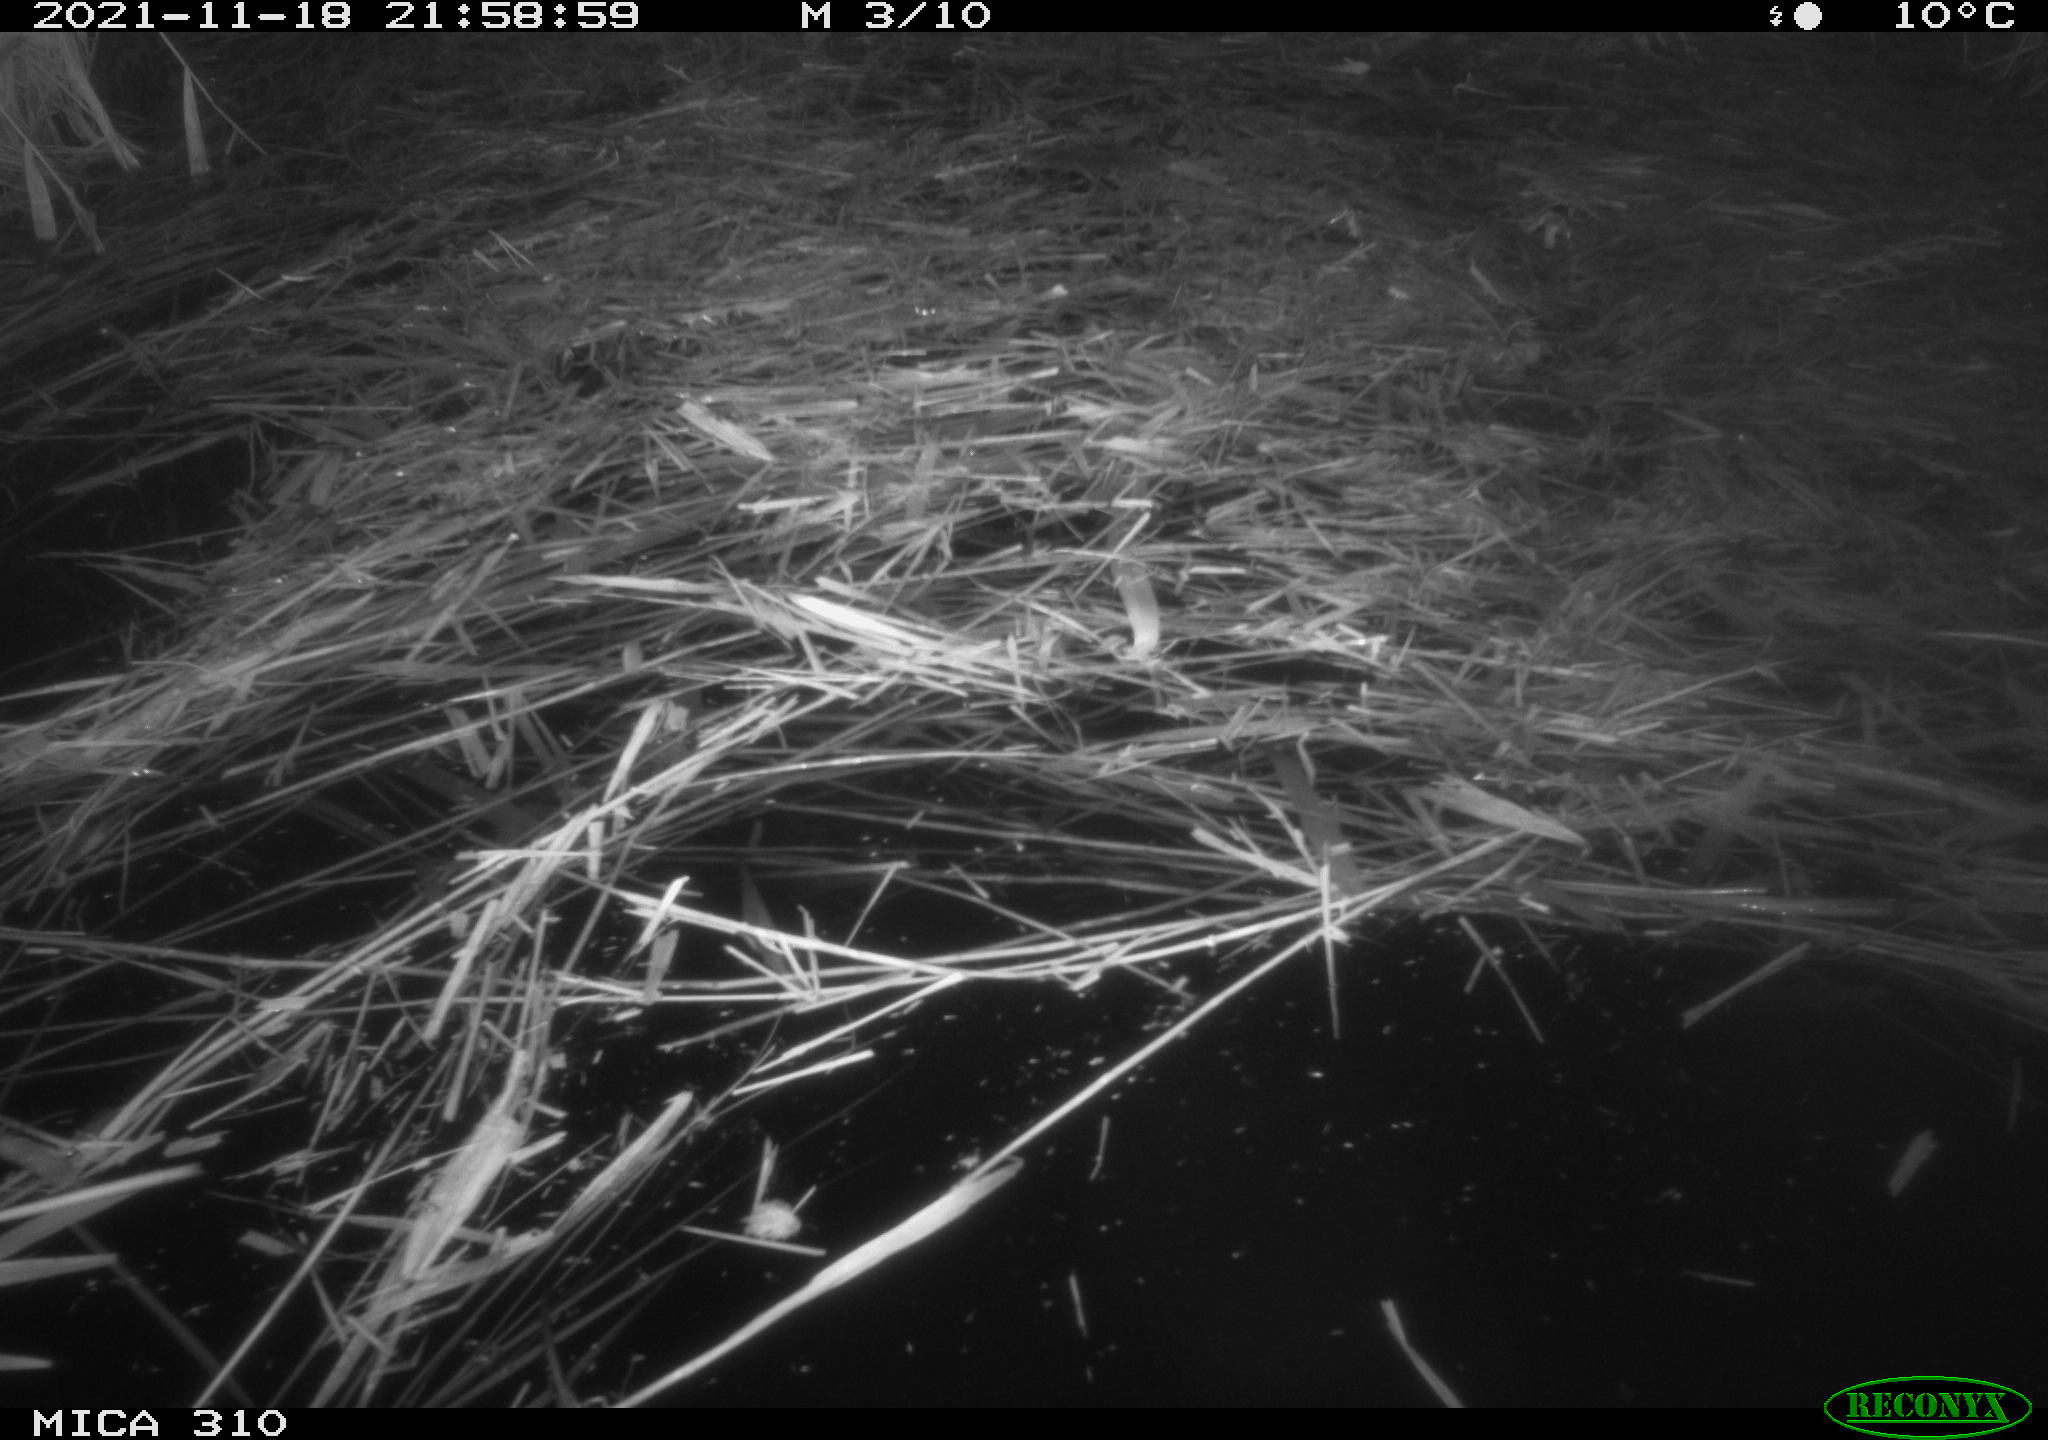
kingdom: Animalia
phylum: Chordata
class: Mammalia
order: Rodentia
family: Muridae
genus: Rattus
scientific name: Rattus norvegicus
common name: Brown rat
